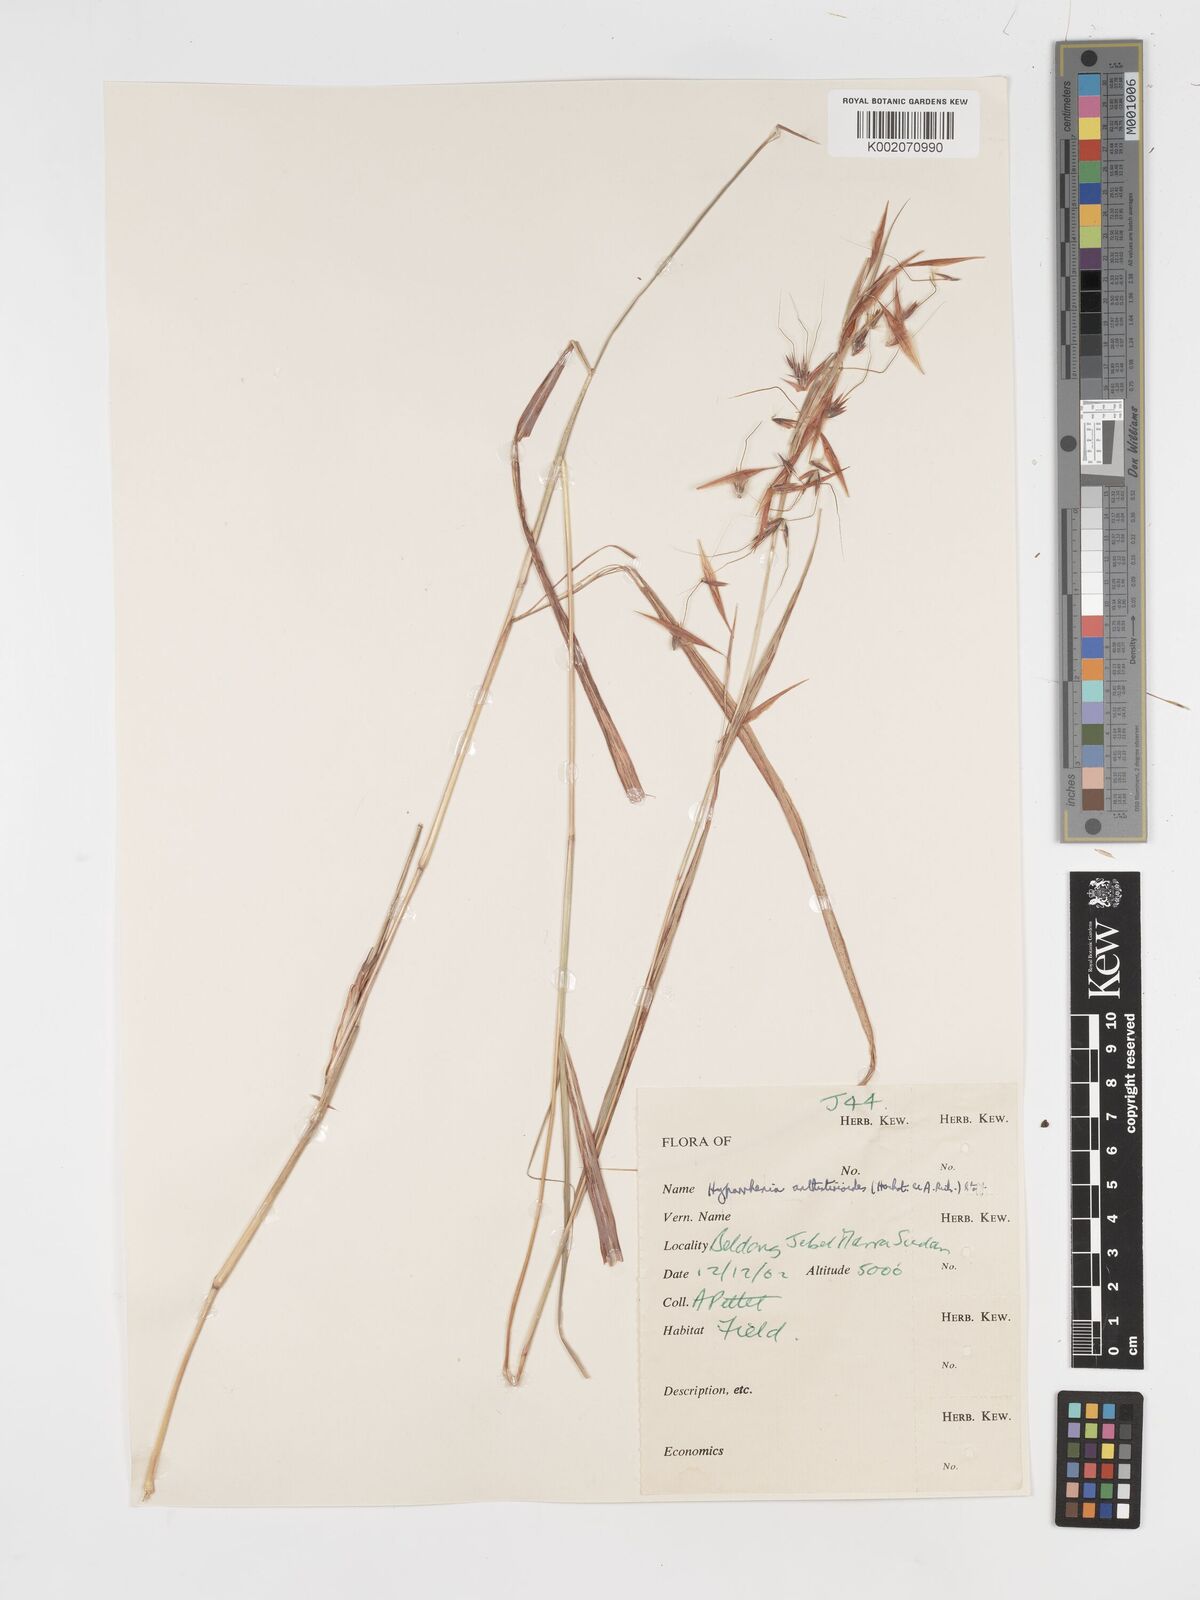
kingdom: Plantae
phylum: Tracheophyta
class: Liliopsida
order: Poales
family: Poaceae
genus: Hyparrhenia
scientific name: Hyparrhenia anthistirioides
